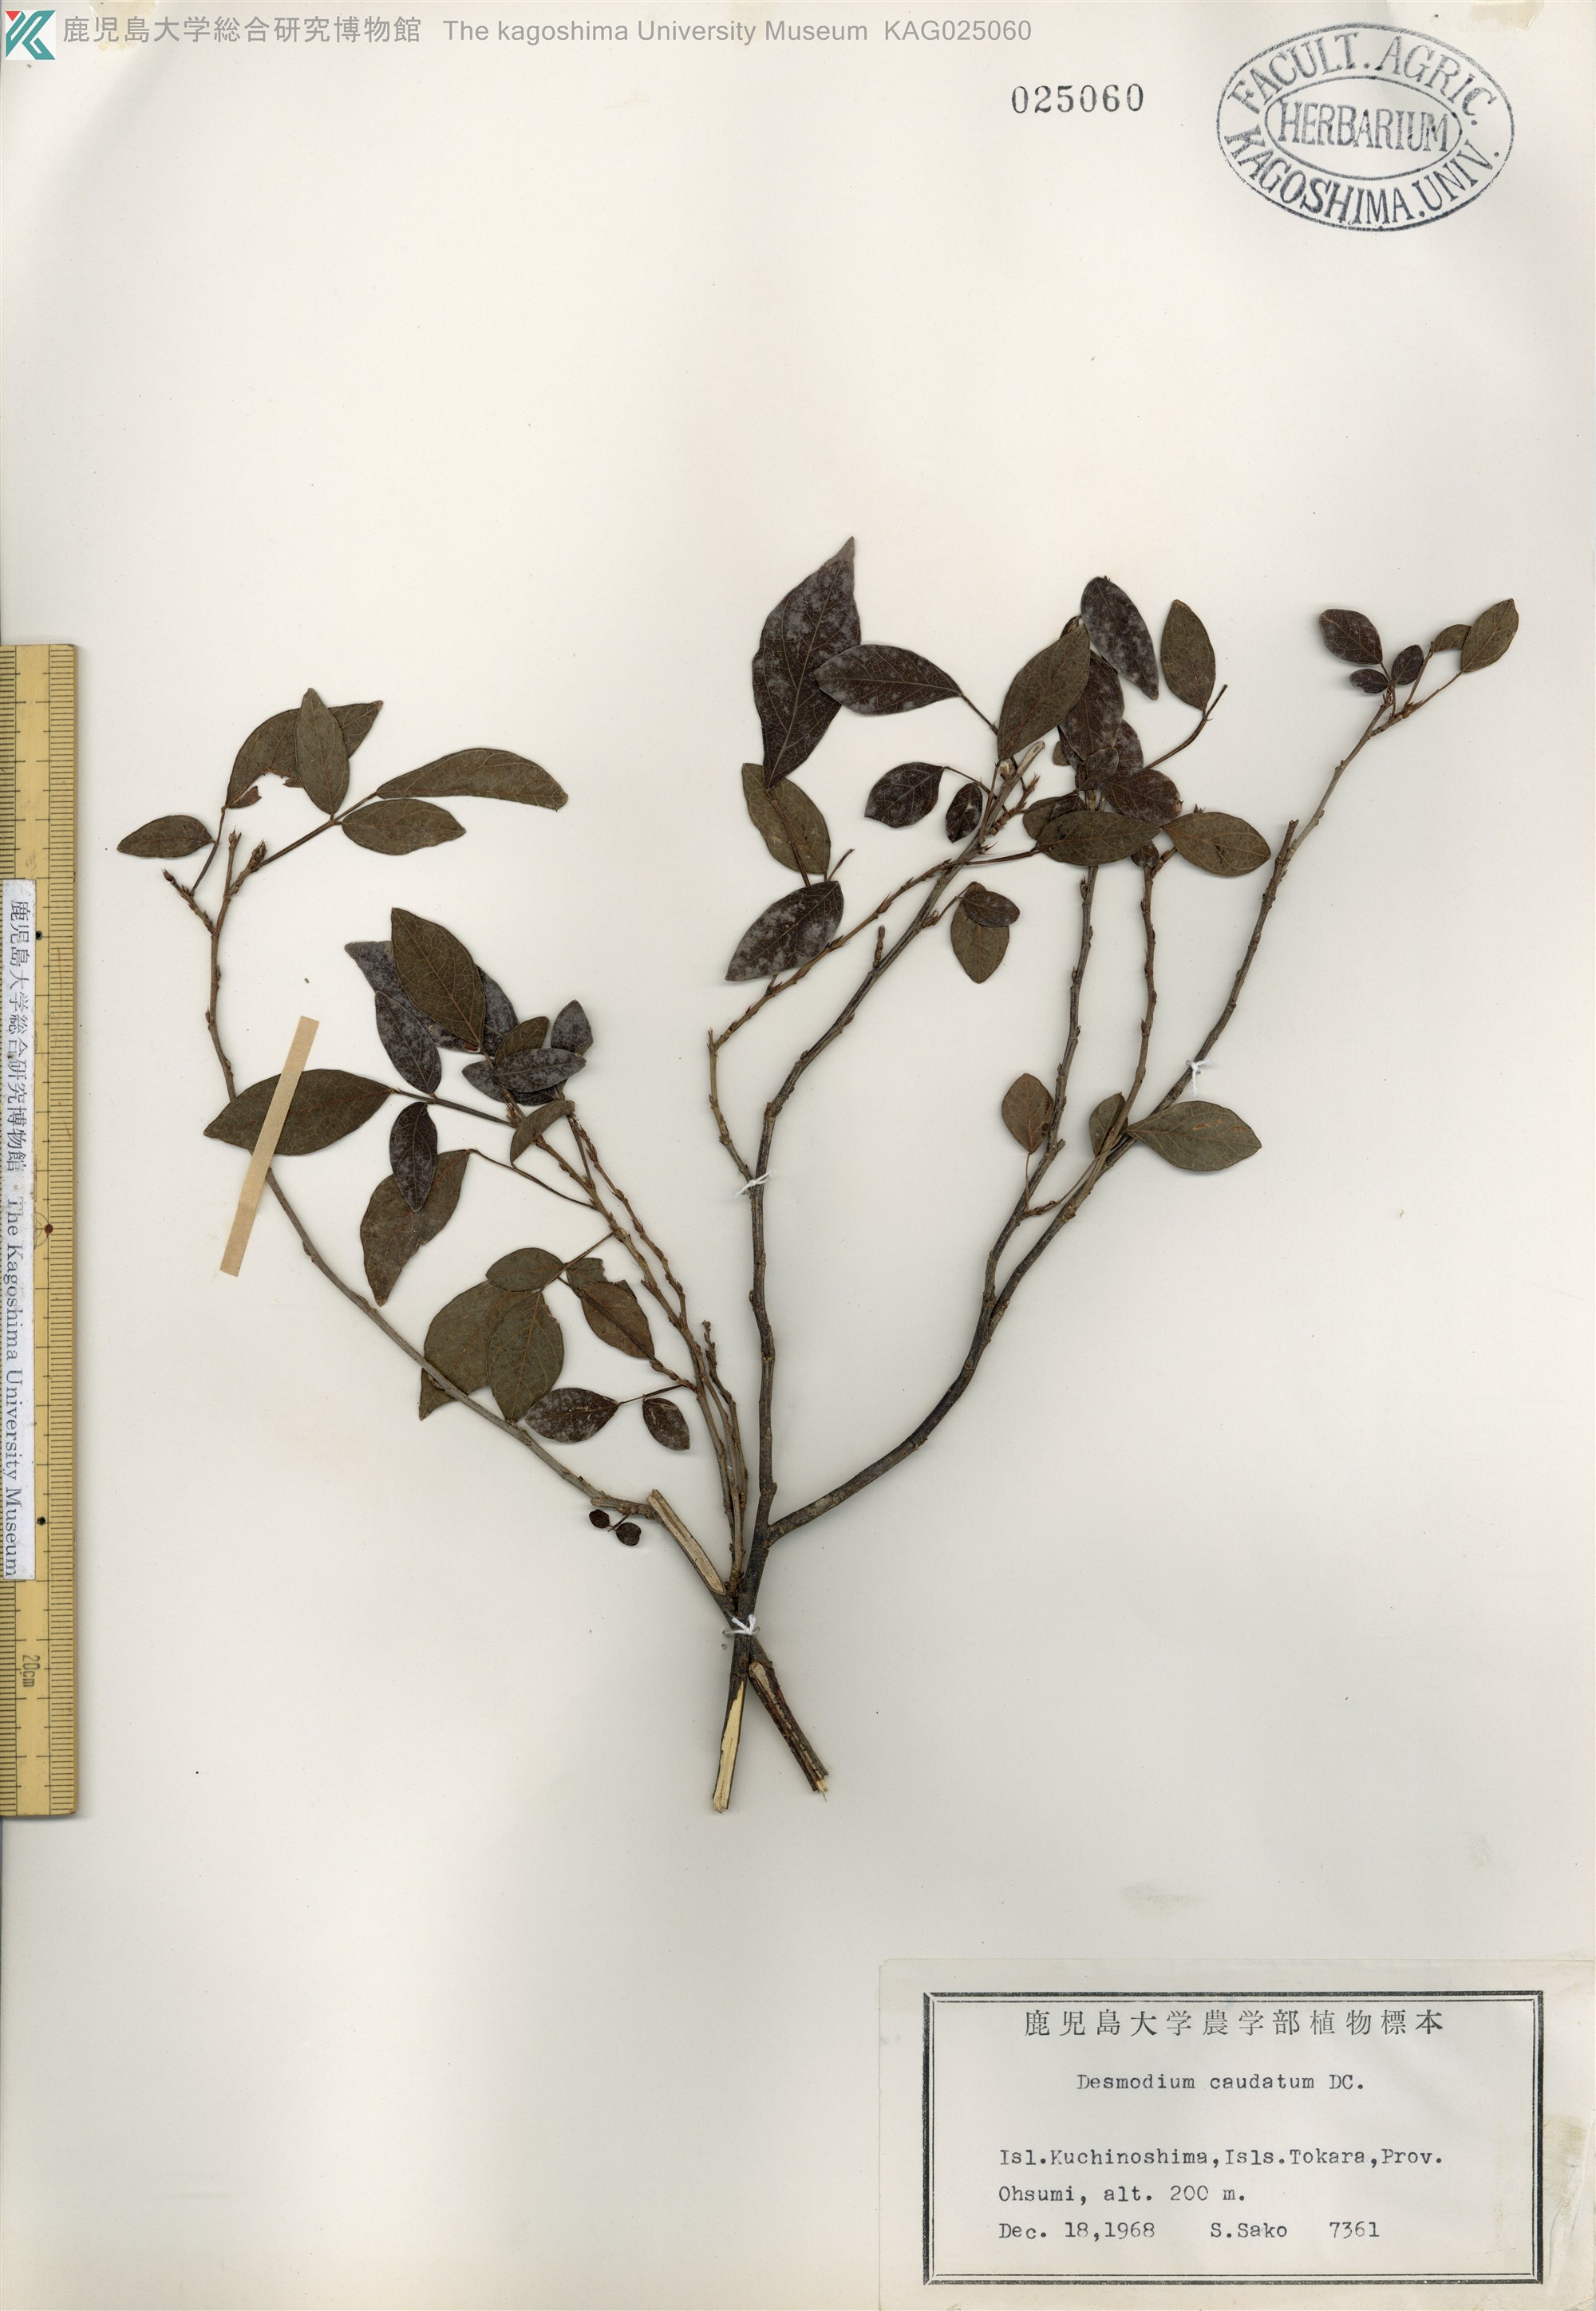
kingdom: Plantae
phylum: Tracheophyta
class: Magnoliopsida
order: Fabales
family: Fabaceae
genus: Ohwia
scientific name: Ohwia caudata
